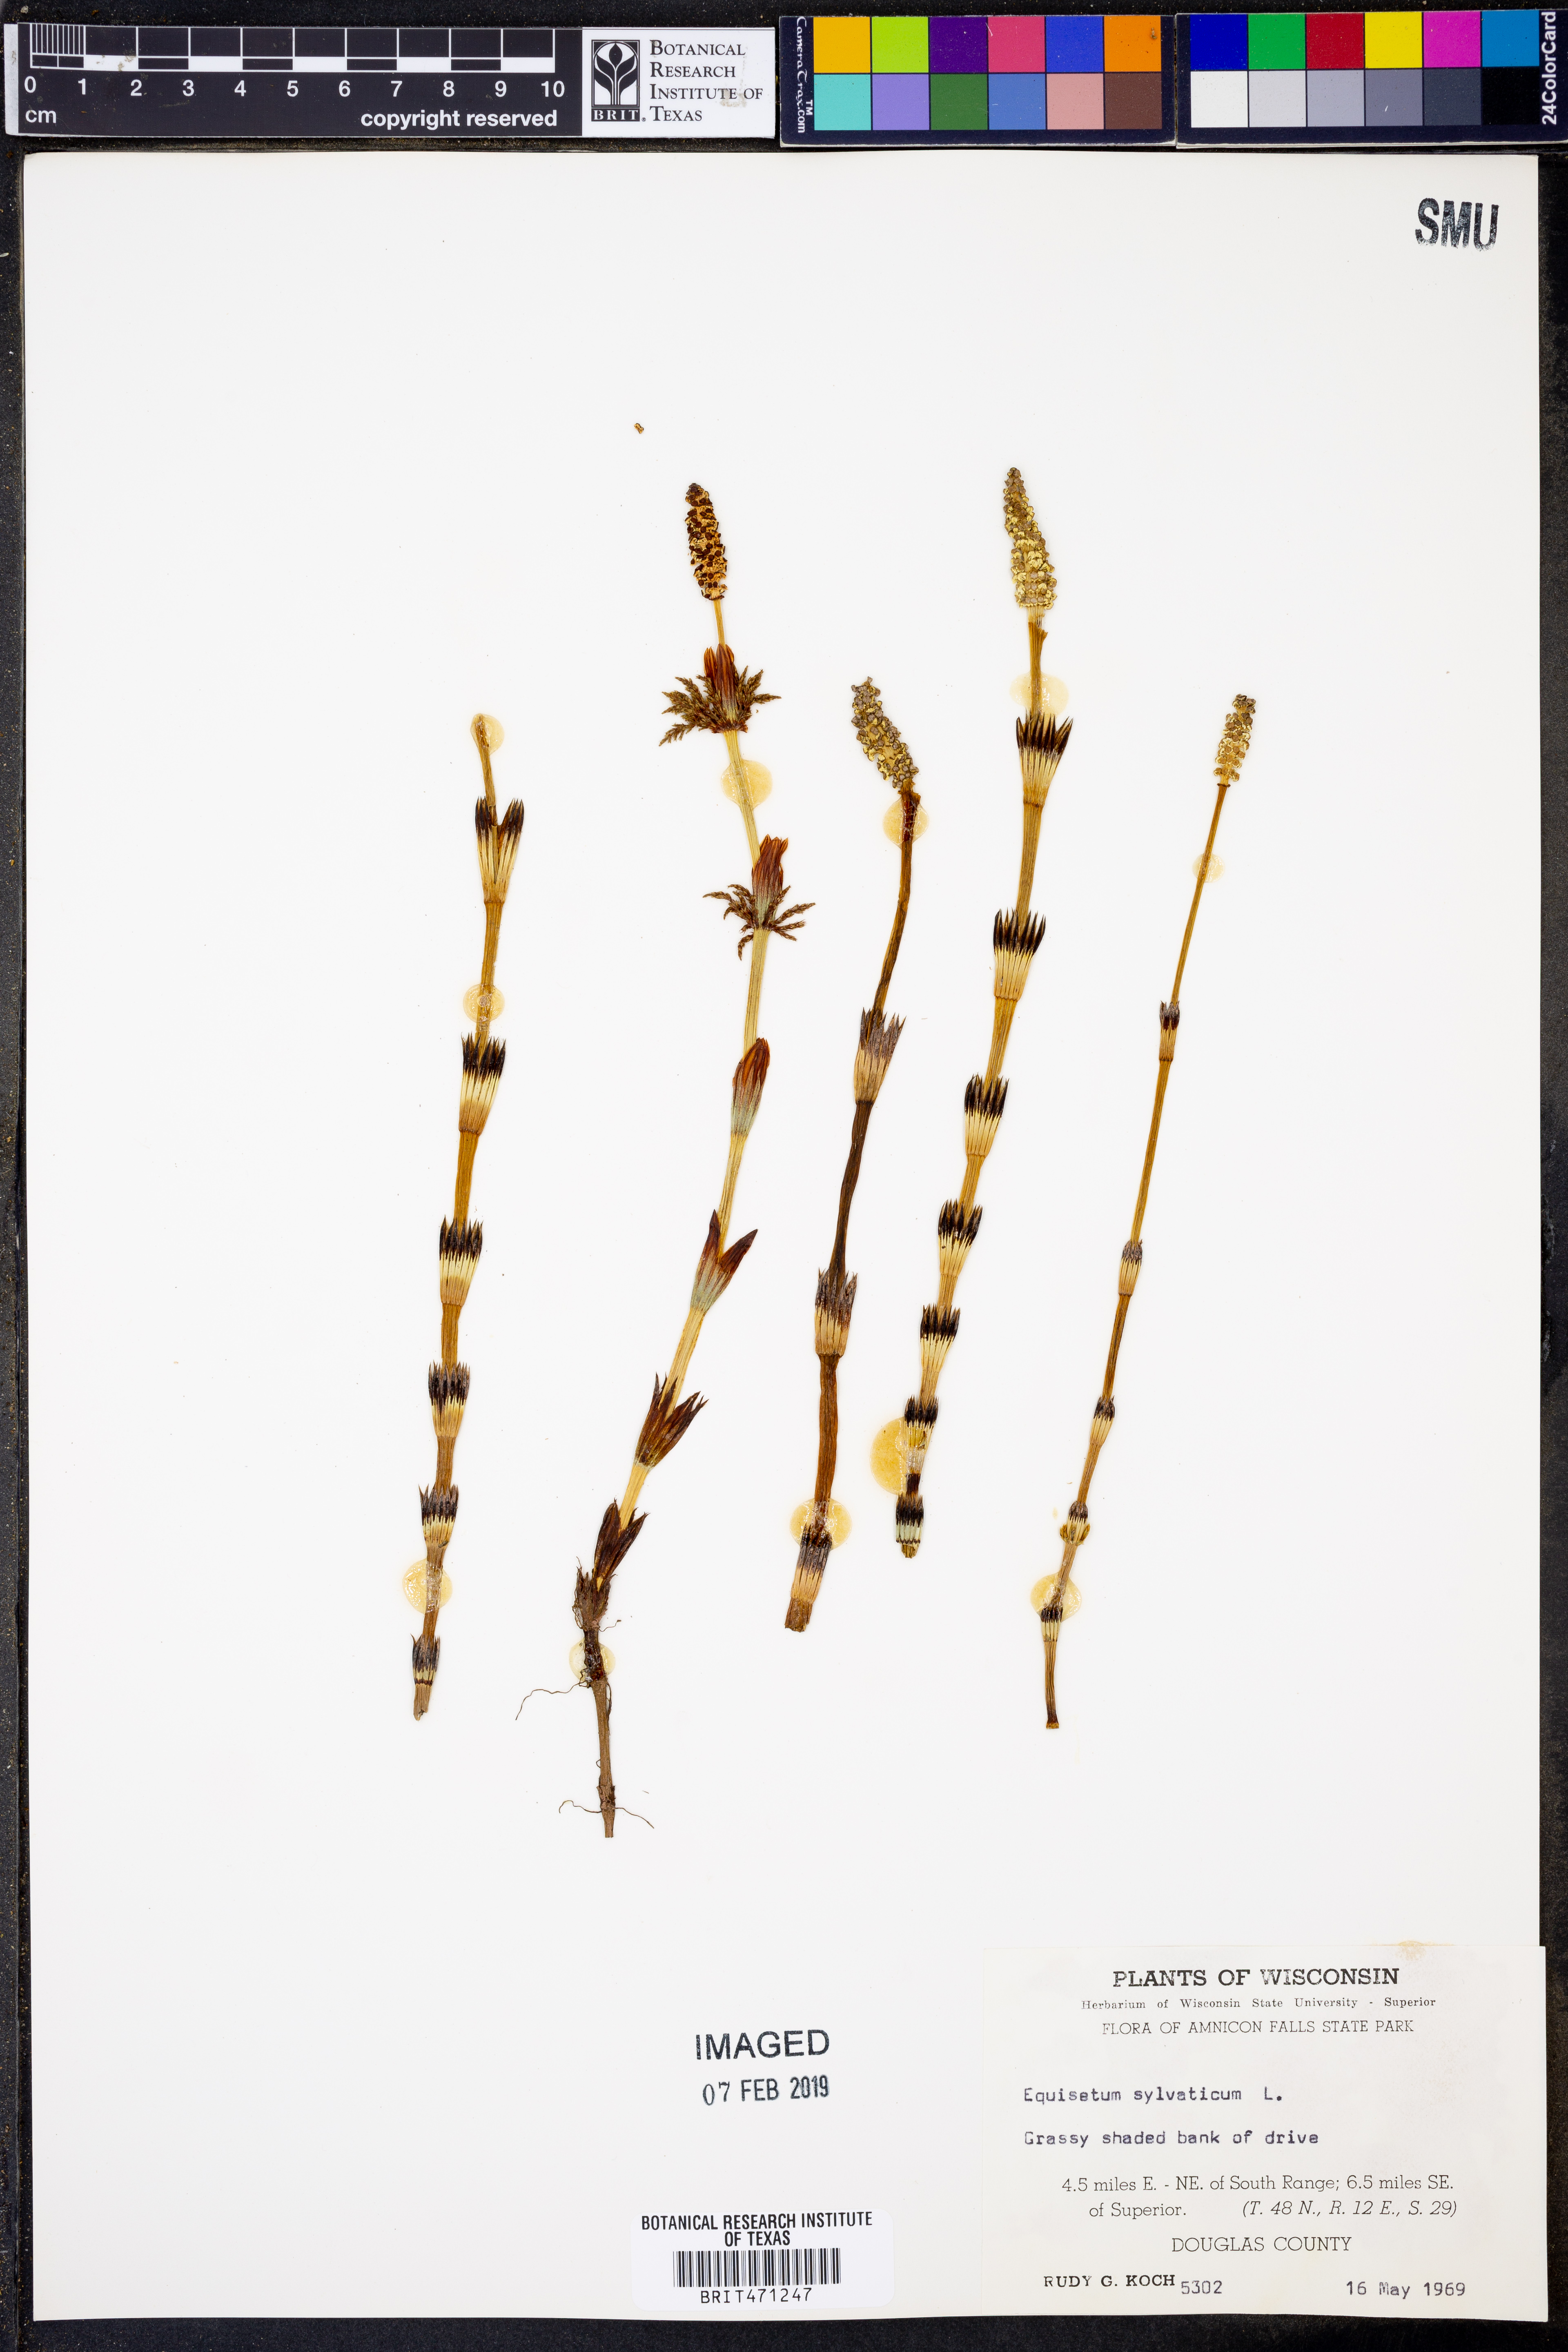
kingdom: Plantae
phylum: Tracheophyta
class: Polypodiopsida
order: Equisetales
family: Equisetaceae
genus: Equisetum
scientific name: Equisetum sylvaticum
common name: Wood horsetail
